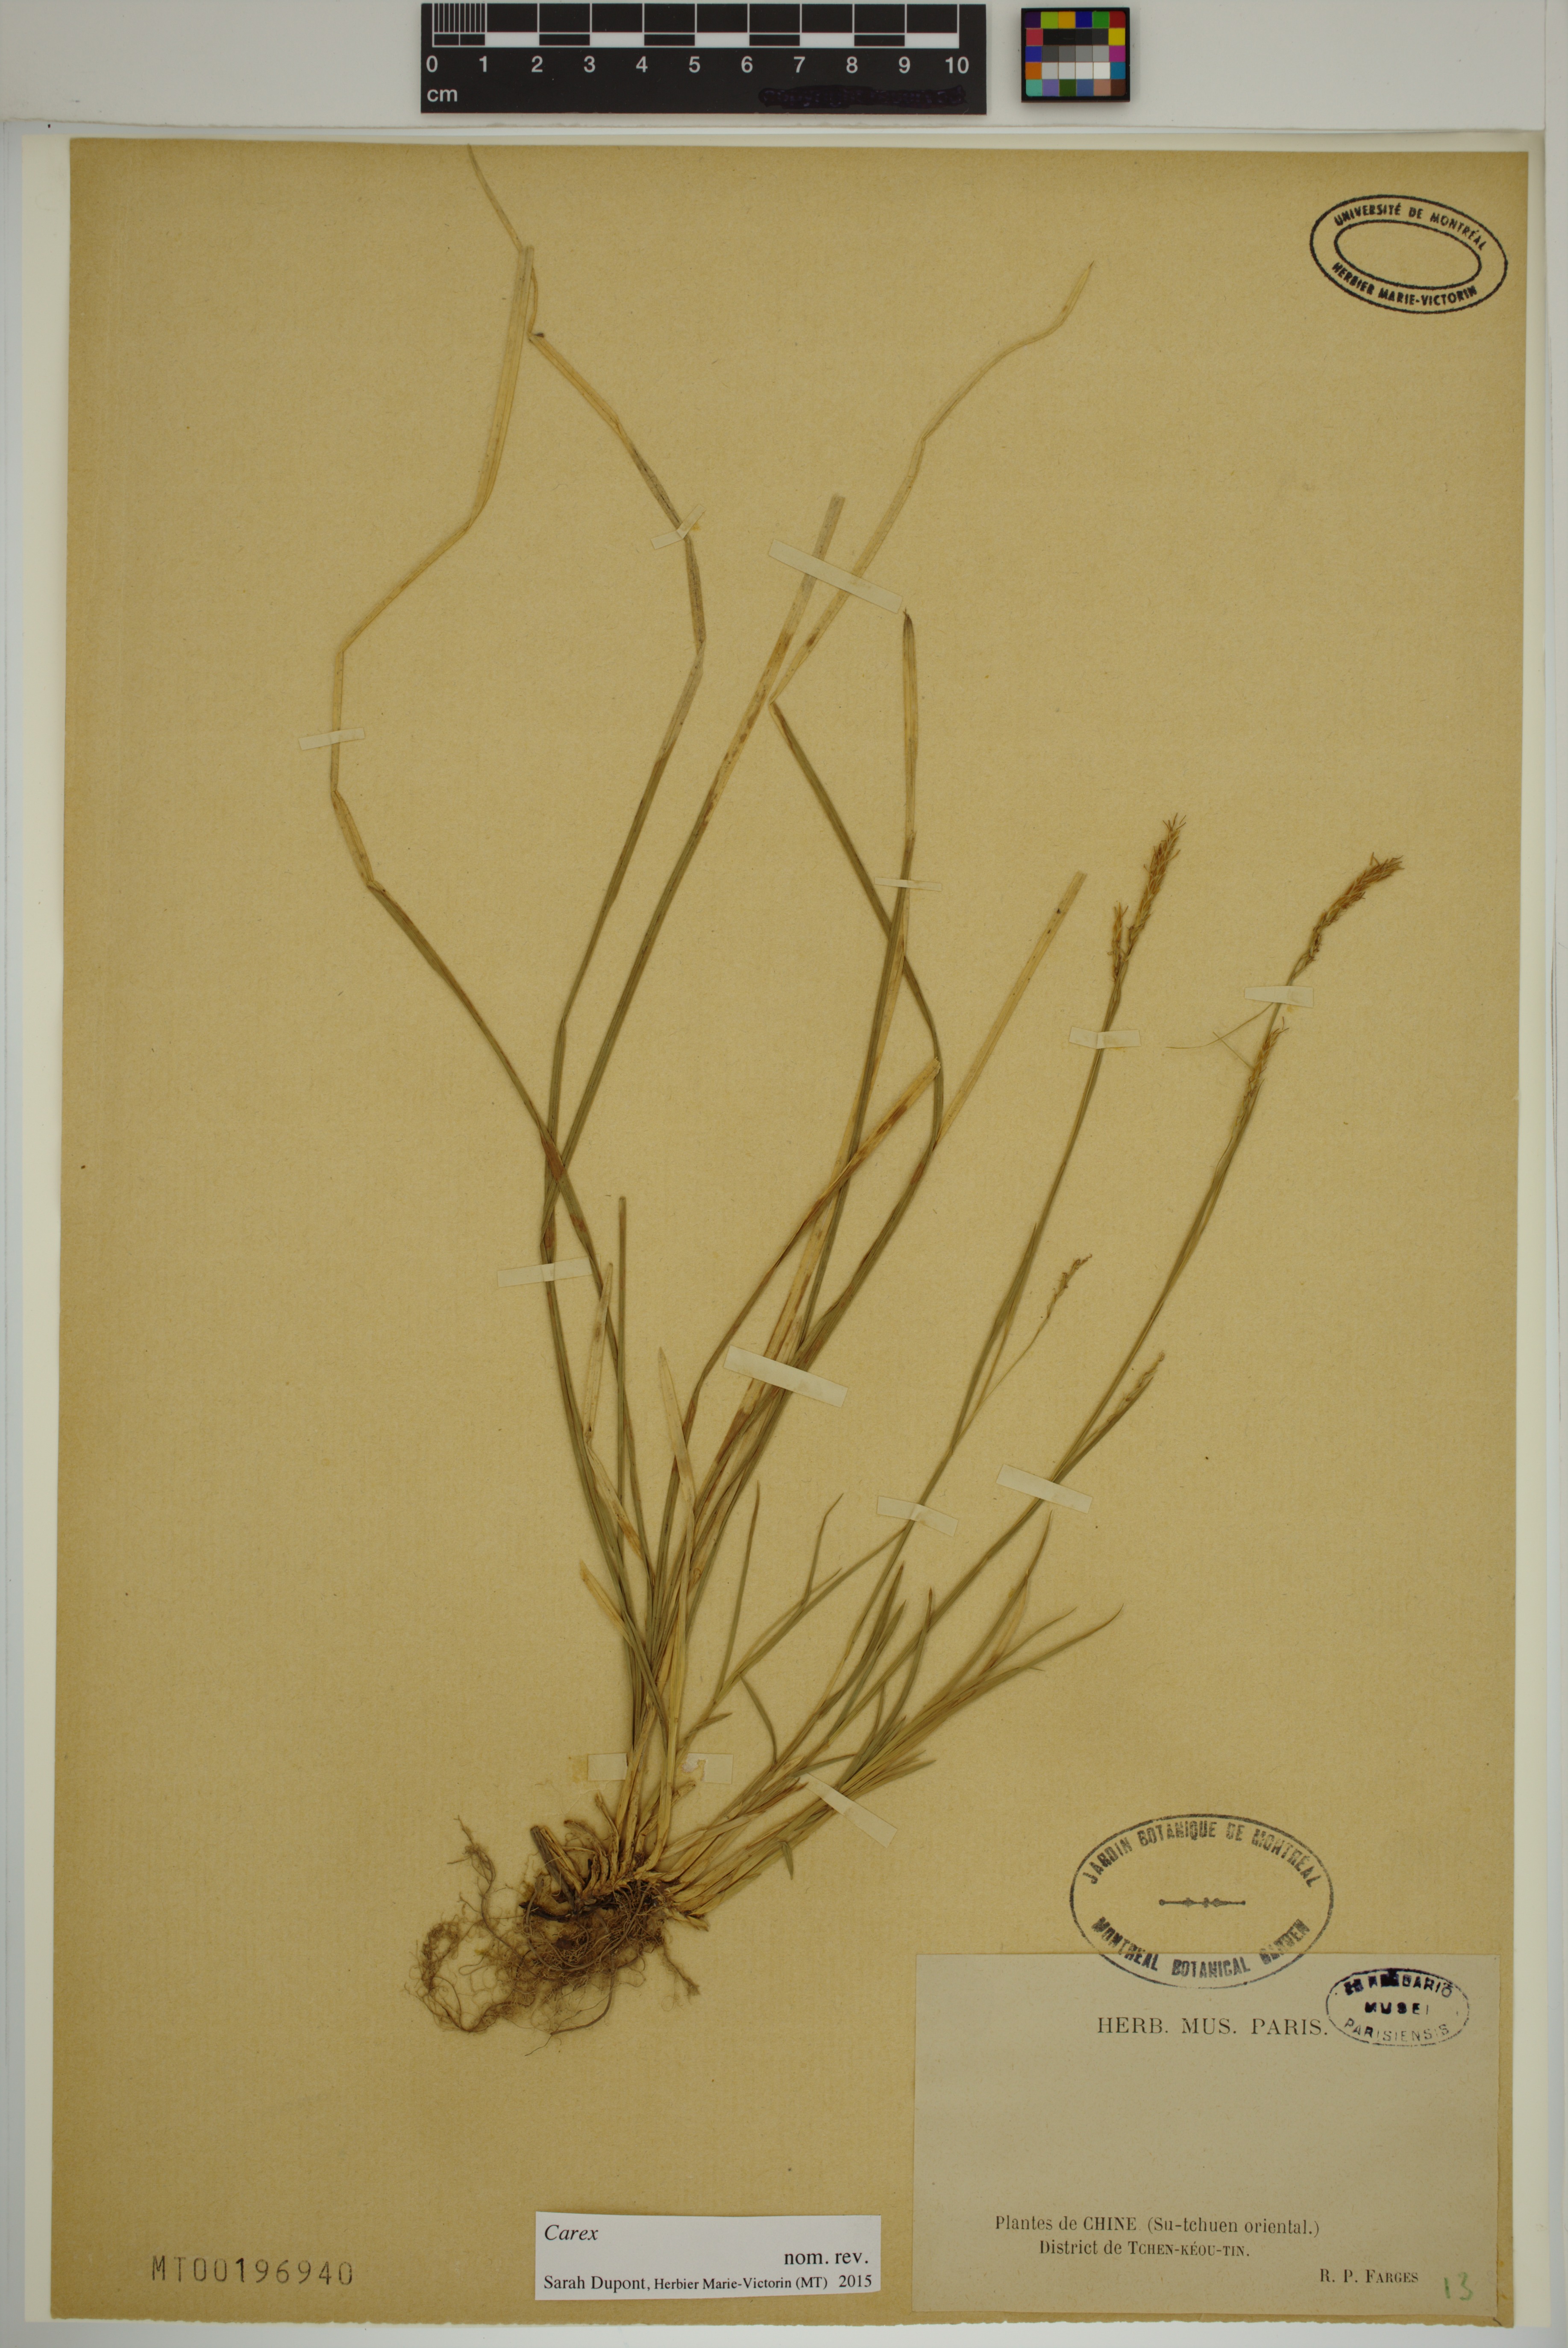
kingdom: Plantae
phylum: Tracheophyta
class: Liliopsida
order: Poales
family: Cyperaceae
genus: Carex
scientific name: Carex
